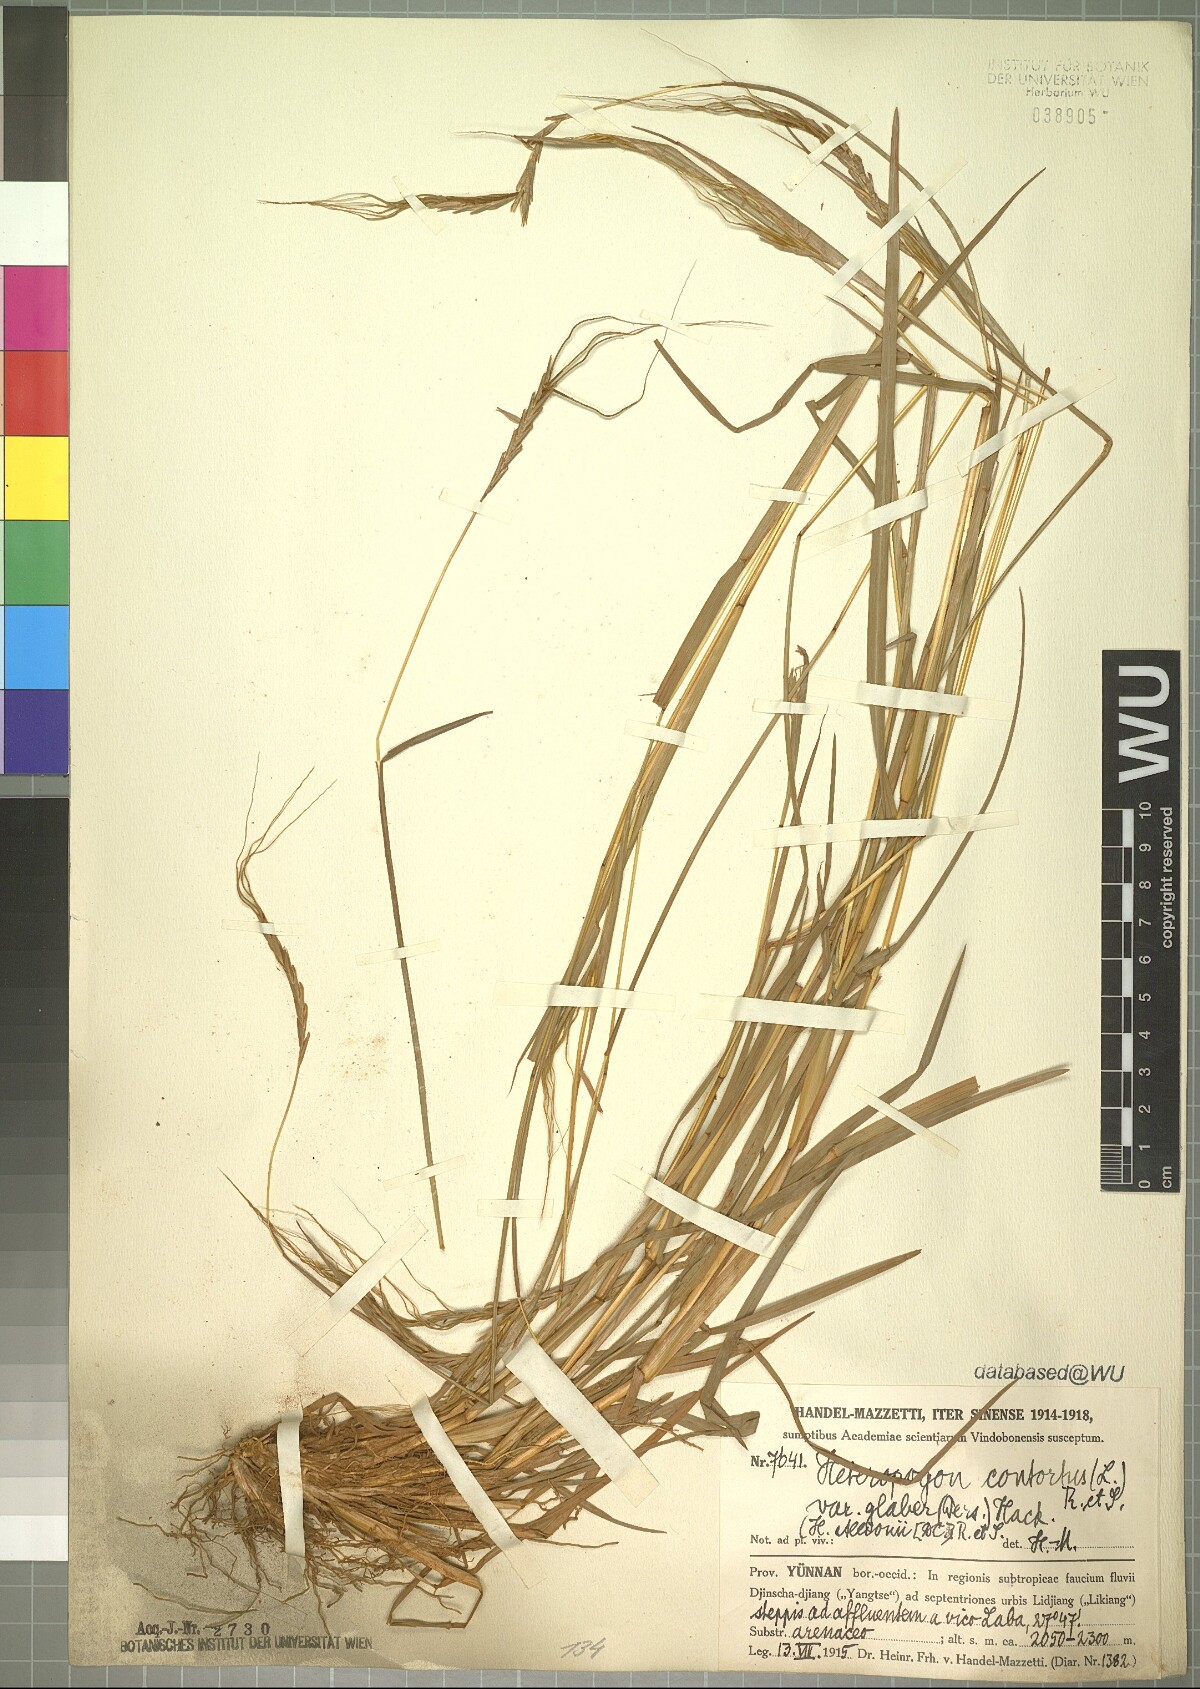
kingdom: Plantae
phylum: Tracheophyta
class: Liliopsida
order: Poales
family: Poaceae
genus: Heteropogon
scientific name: Heteropogon contortus
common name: Tanglehead
